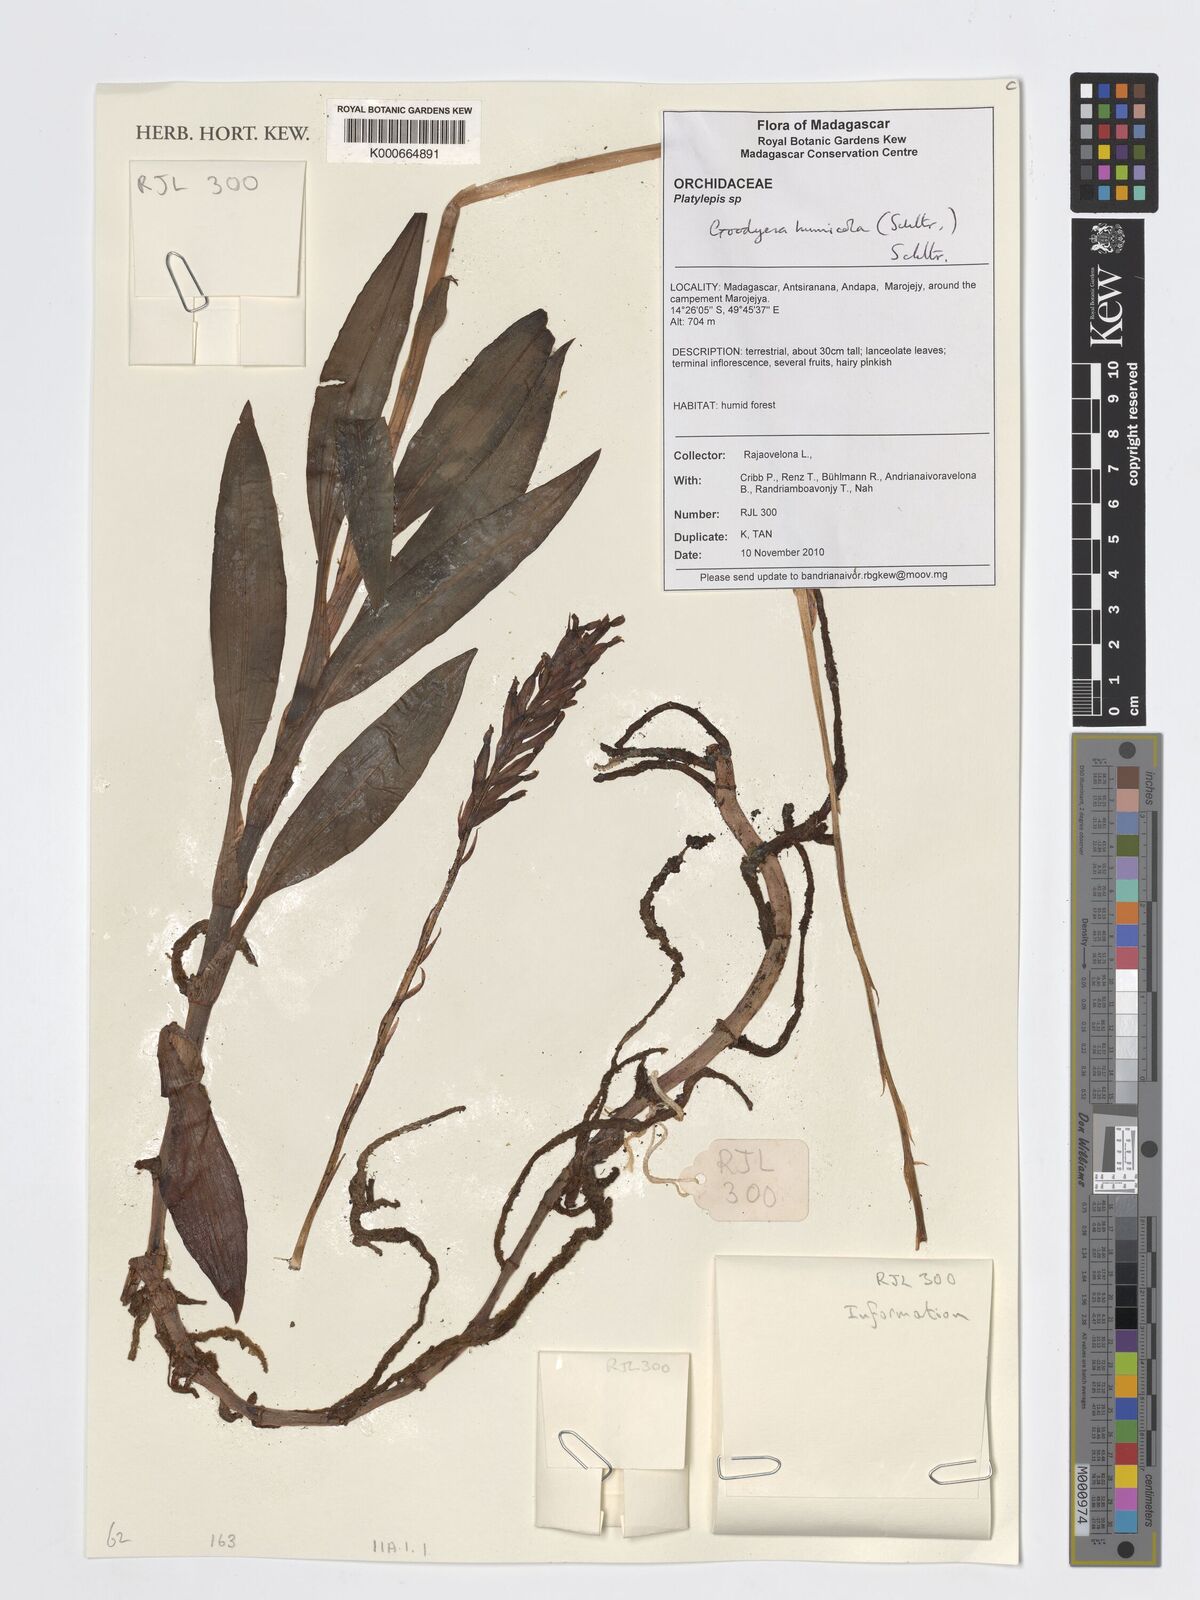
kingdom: Plantae
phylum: Tracheophyta
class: Liliopsida
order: Asparagales
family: Orchidaceae
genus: Goodyera
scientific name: Goodyera humicola
